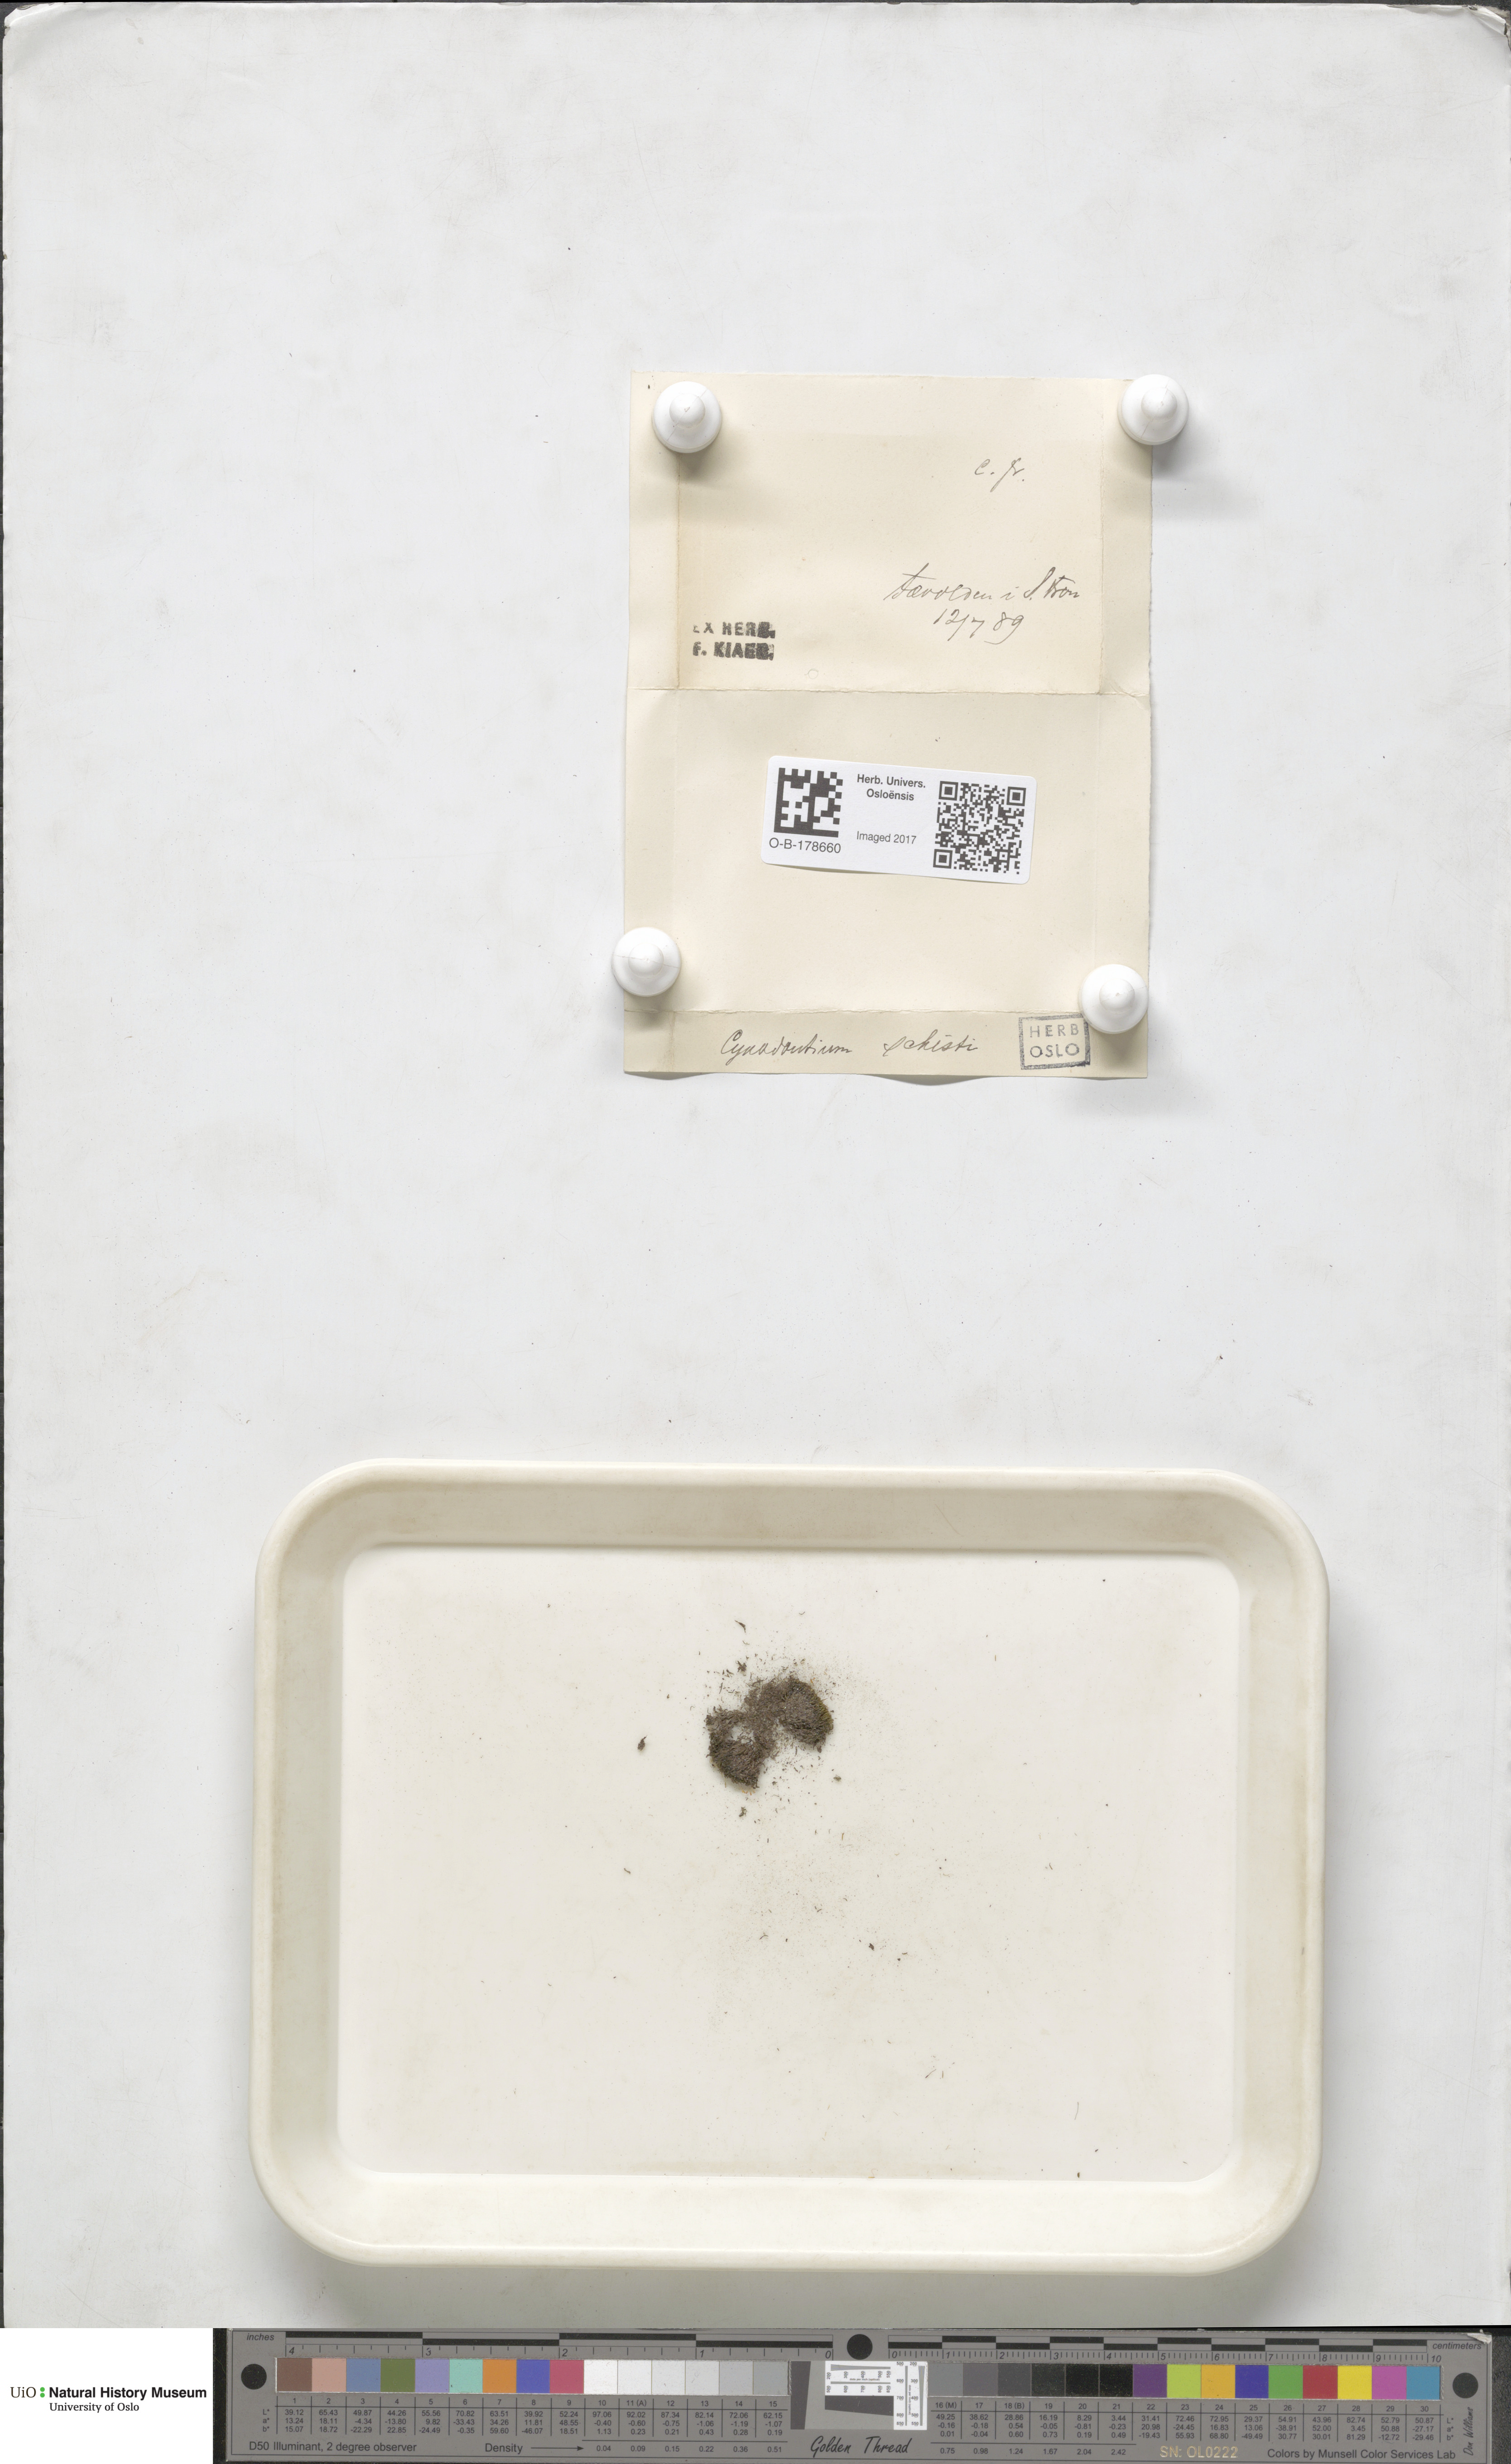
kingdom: Plantae
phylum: Bryophyta
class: Bryopsida
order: Dicranales
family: Rhabdoweisiaceae
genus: Cnestrum
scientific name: Cnestrum schisti
